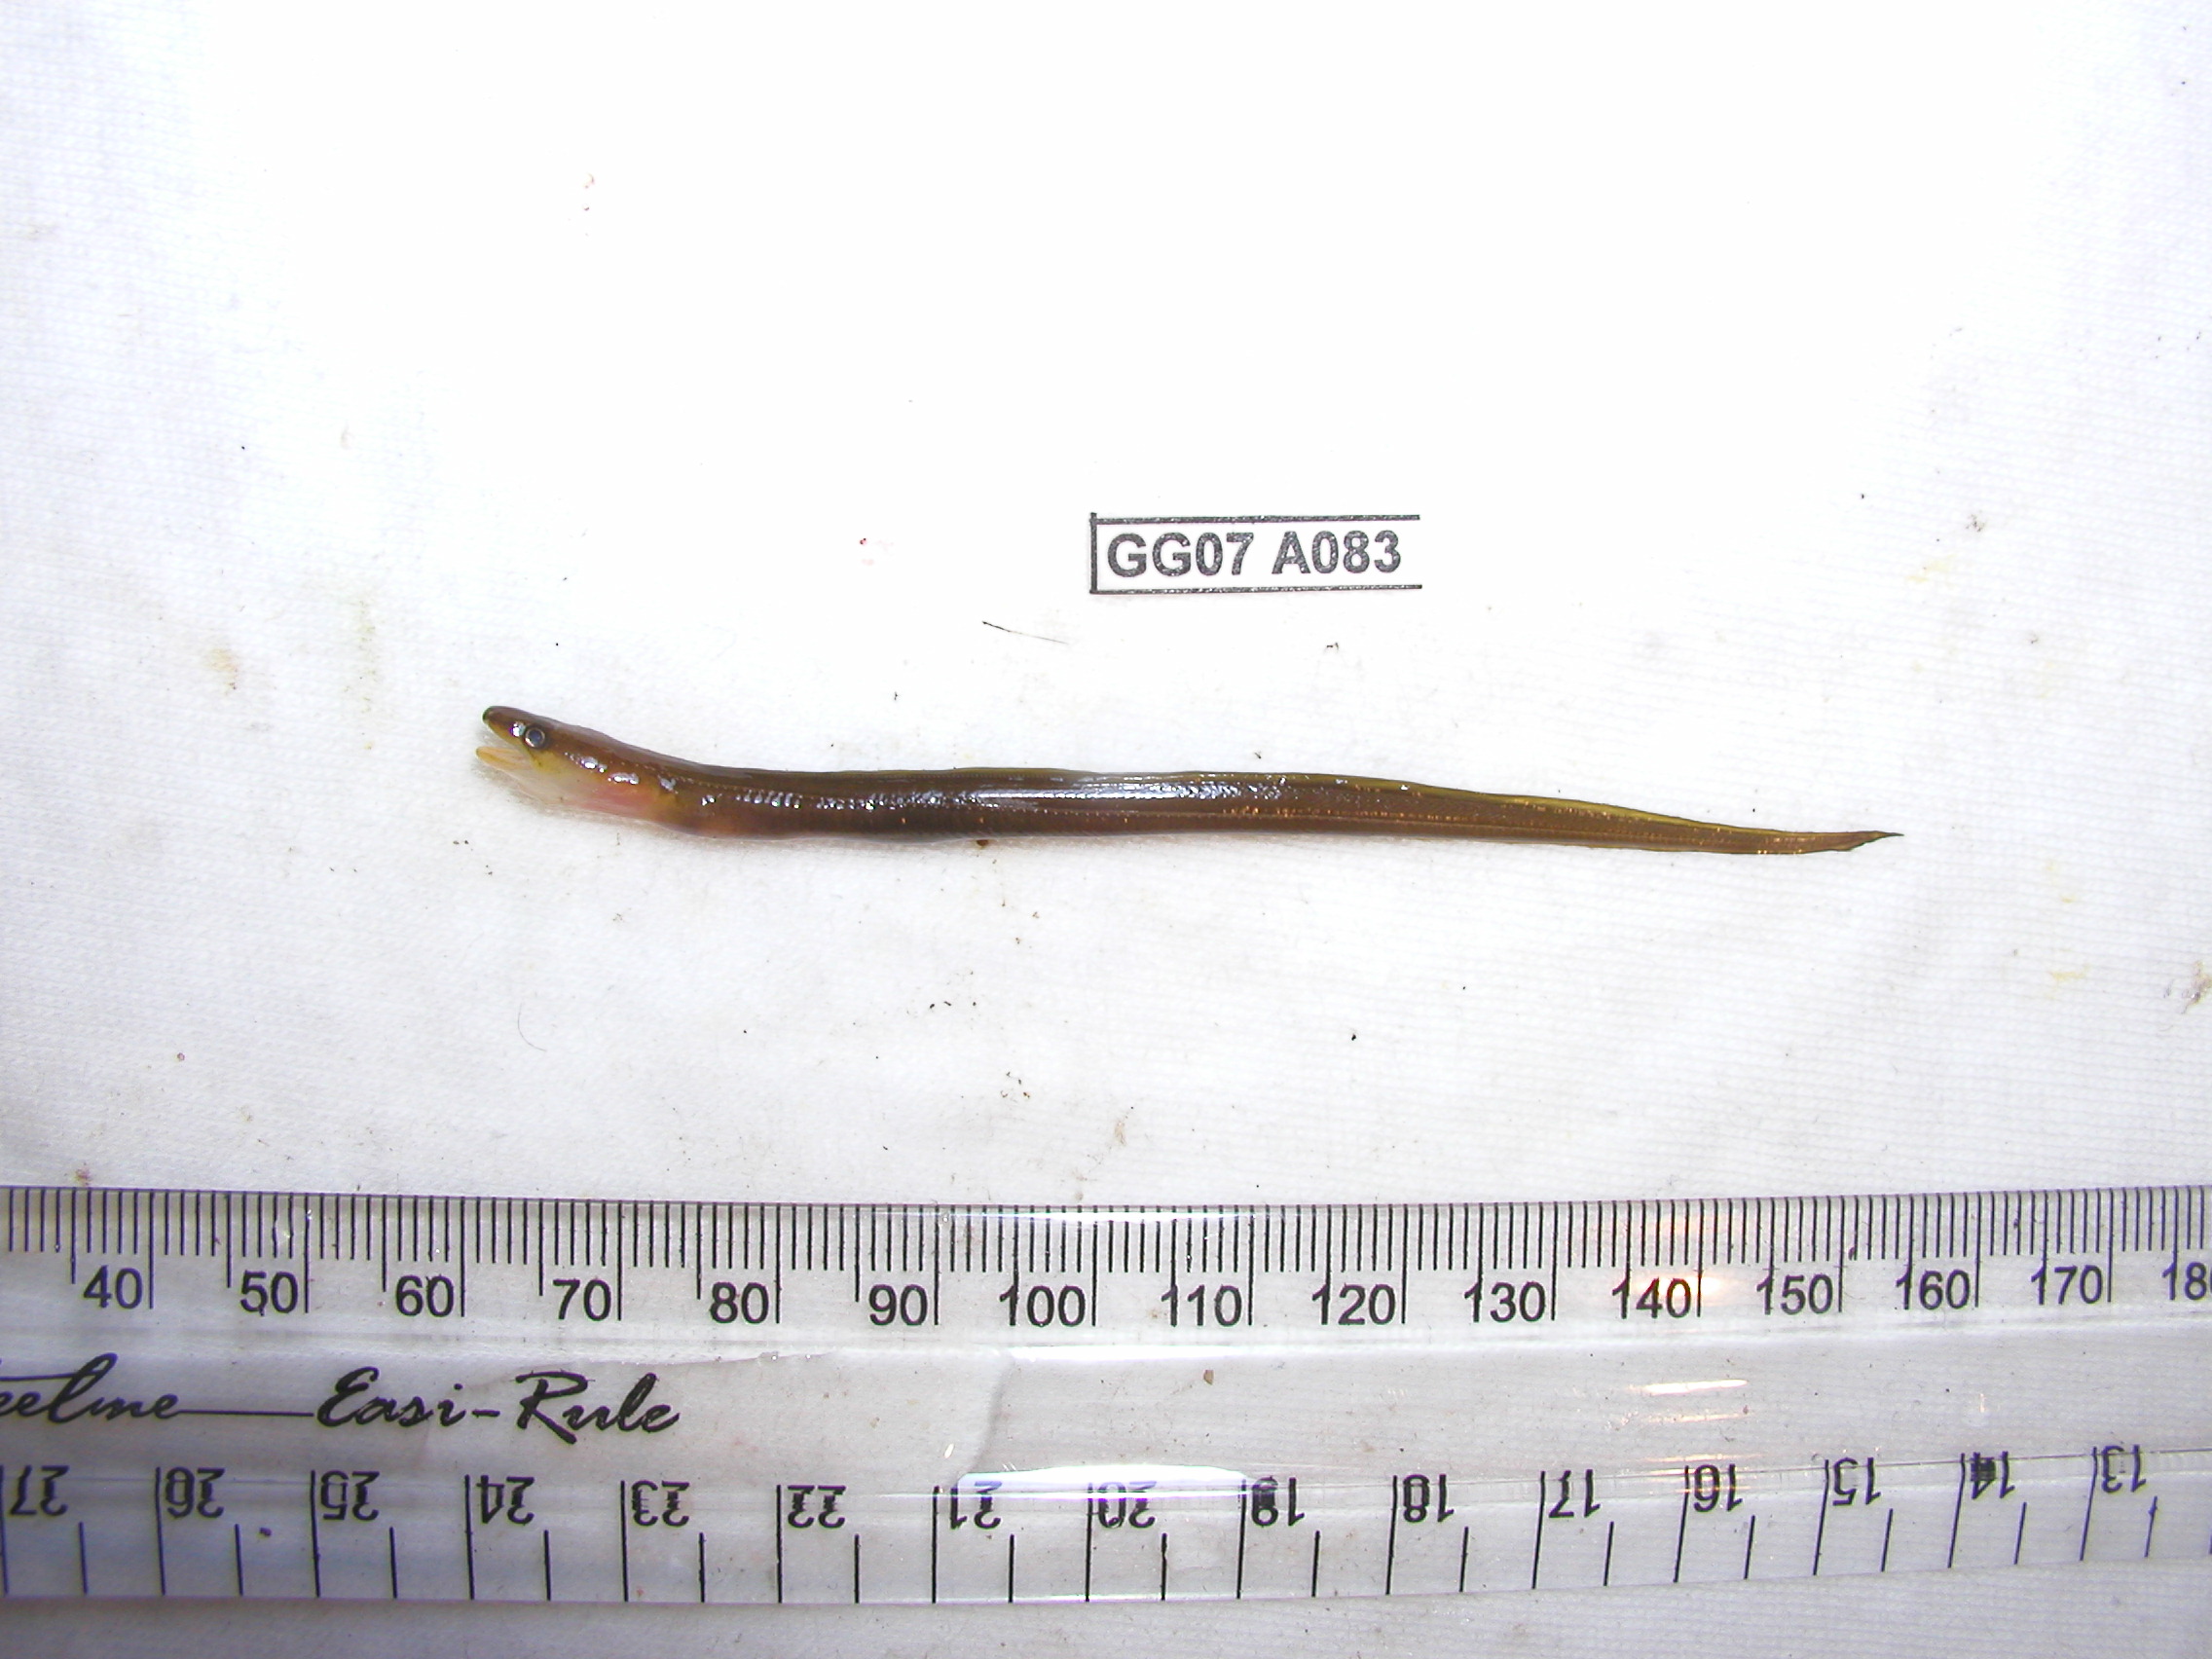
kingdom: Animalia
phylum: Chordata
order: Anguilliformes
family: Congridae
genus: Conger
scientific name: Conger
